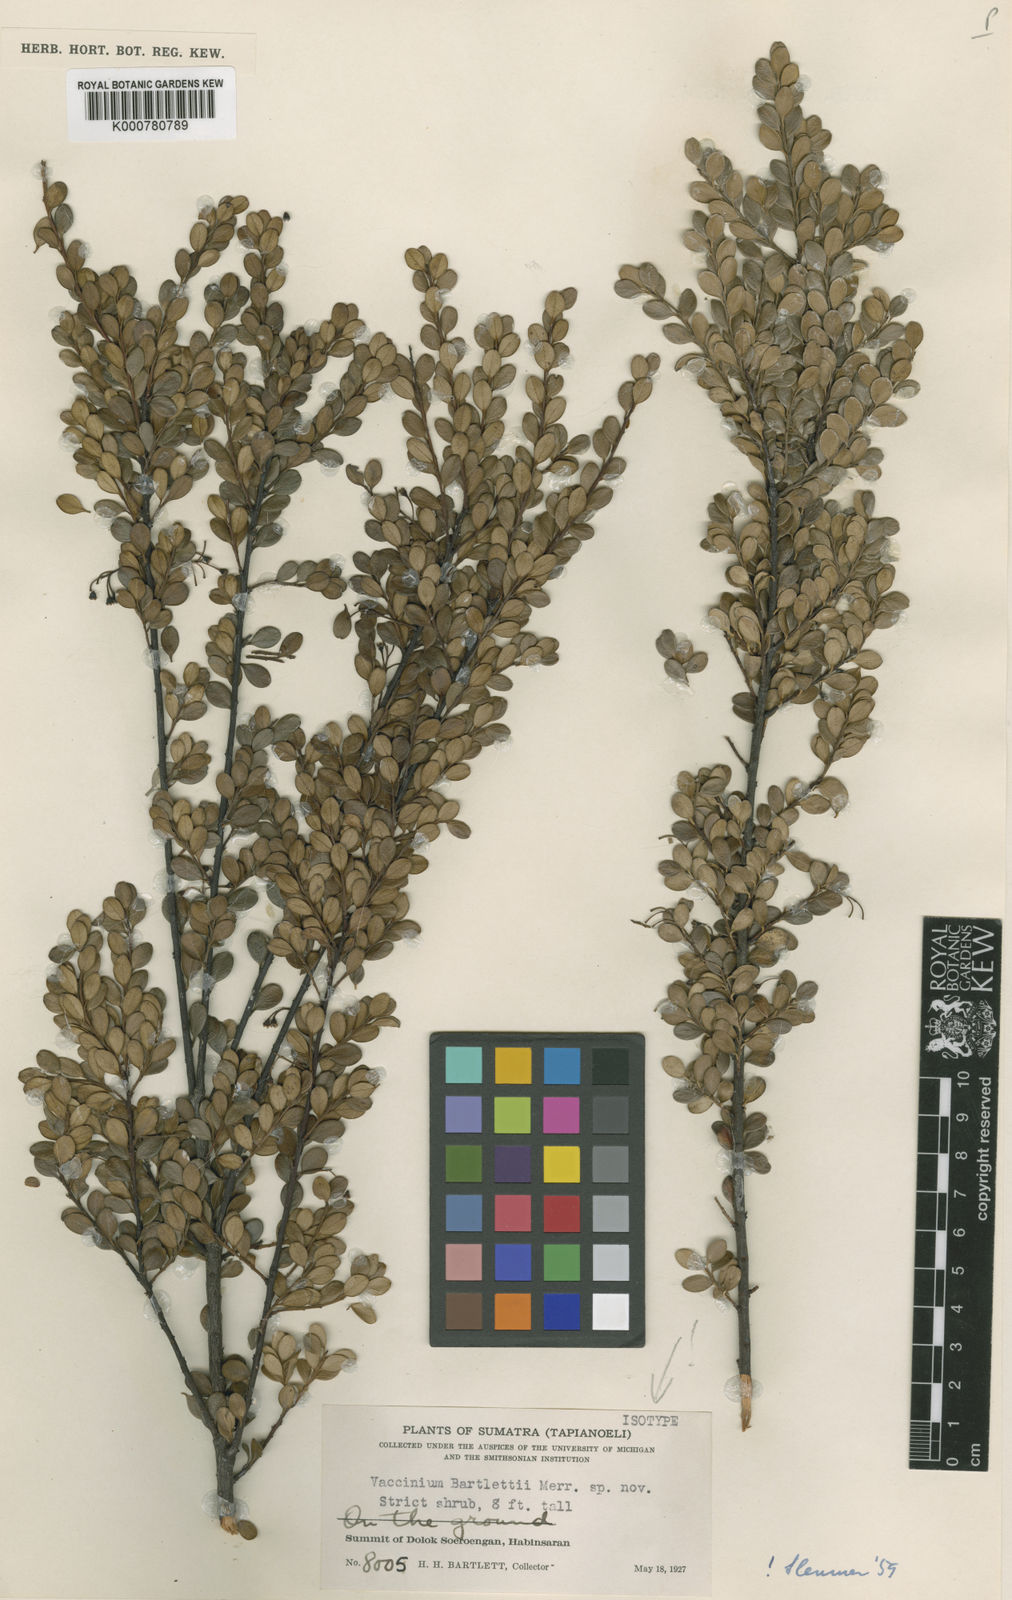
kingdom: Plantae
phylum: Tracheophyta
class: Magnoliopsida
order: Ericales
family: Ericaceae
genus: Vaccinium
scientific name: Vaccinium bartlettii
